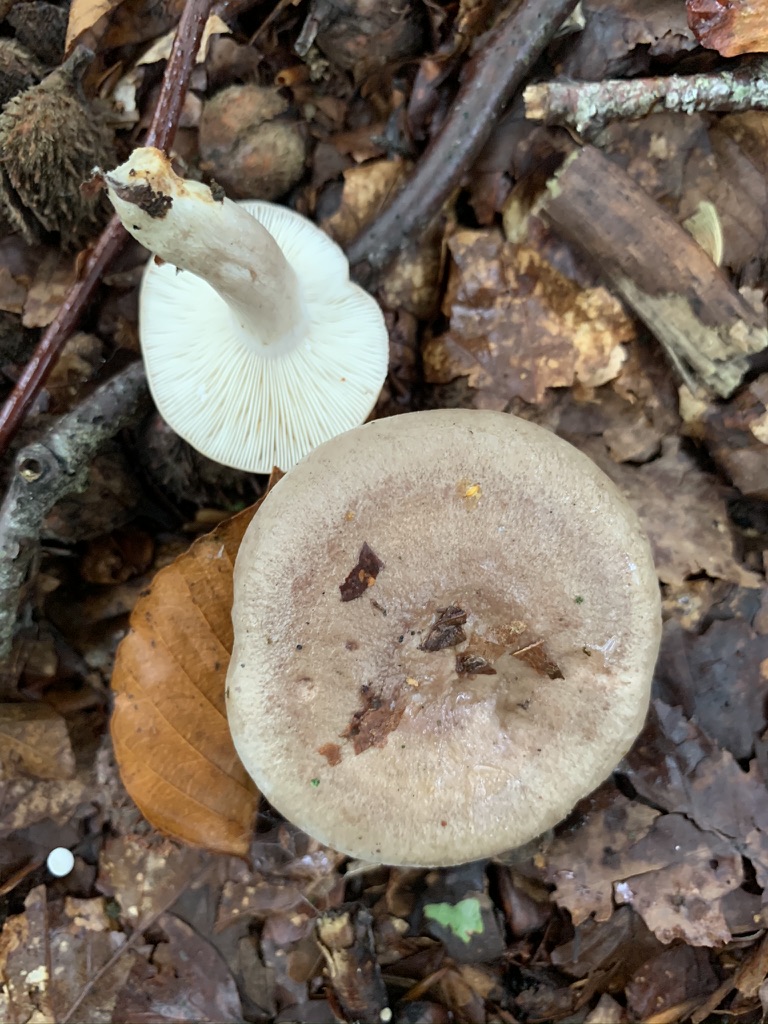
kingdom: Fungi
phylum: Basidiomycota
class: Agaricomycetes
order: Russulales
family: Russulaceae
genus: Lactarius
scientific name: Lactarius blennius
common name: dråbeplettet mælkehat
